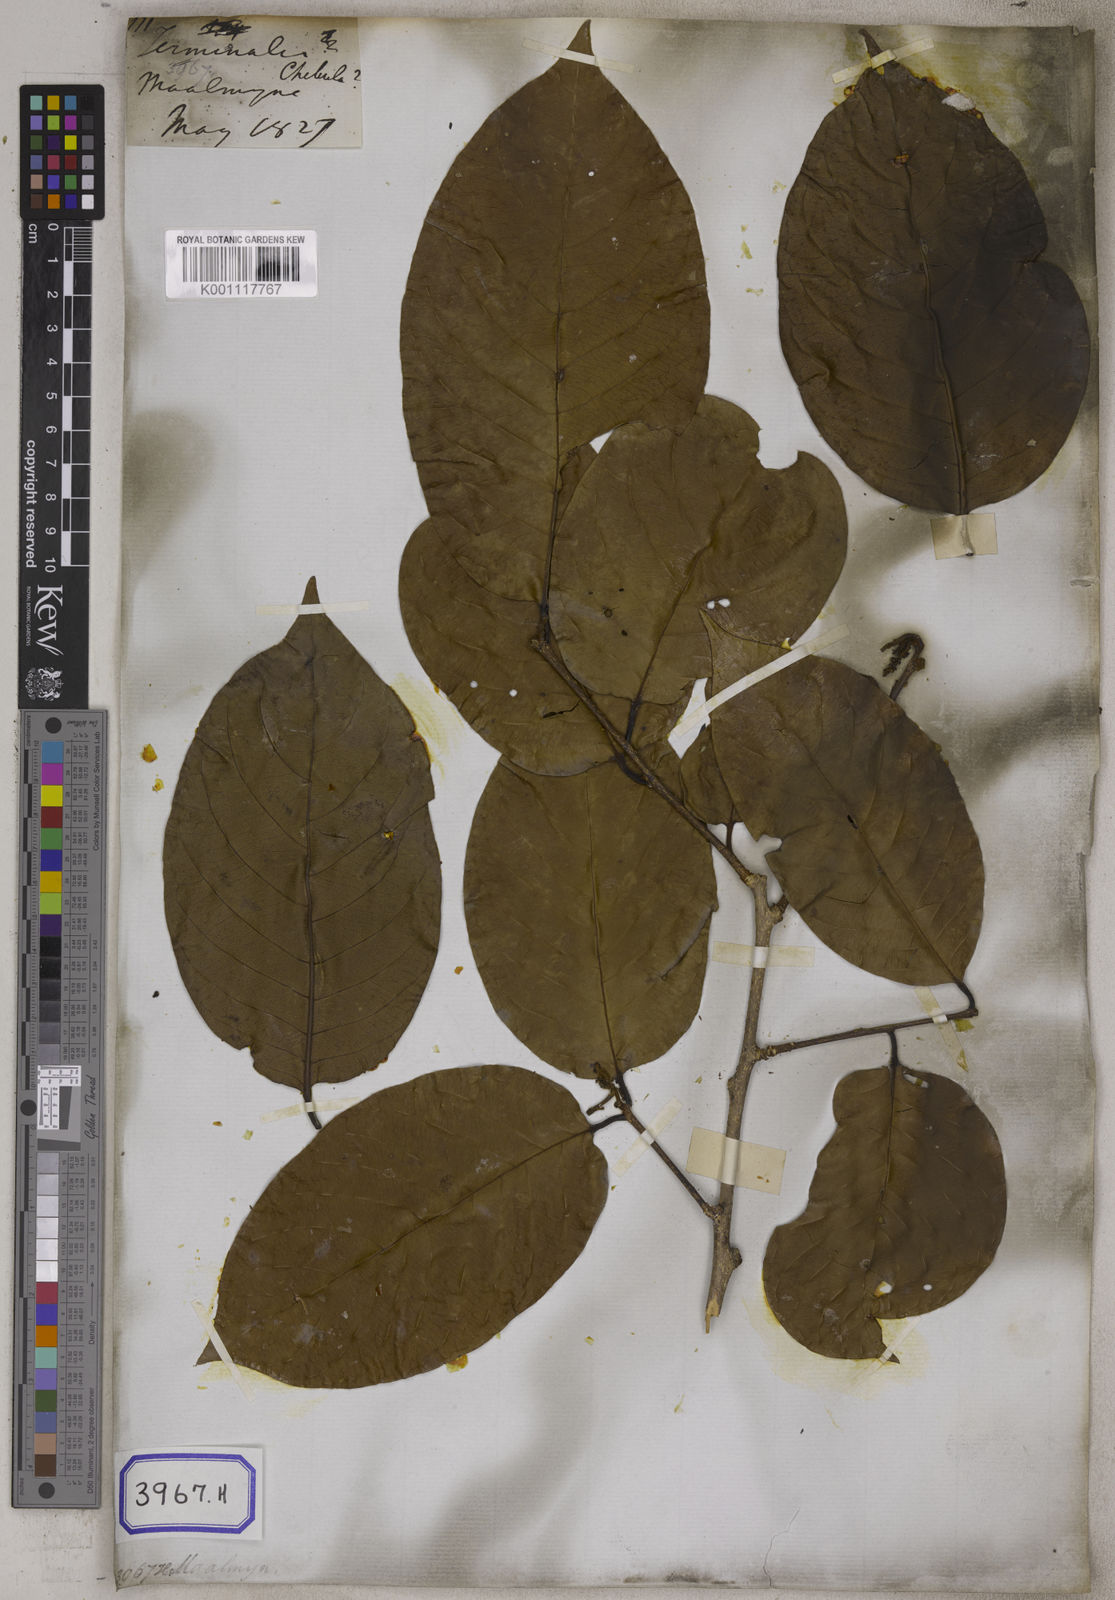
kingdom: Plantae
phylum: Tracheophyta
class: Magnoliopsida
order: Myrtales
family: Combretaceae
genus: Terminalia
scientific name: Terminalia chebula
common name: Myrobalan
